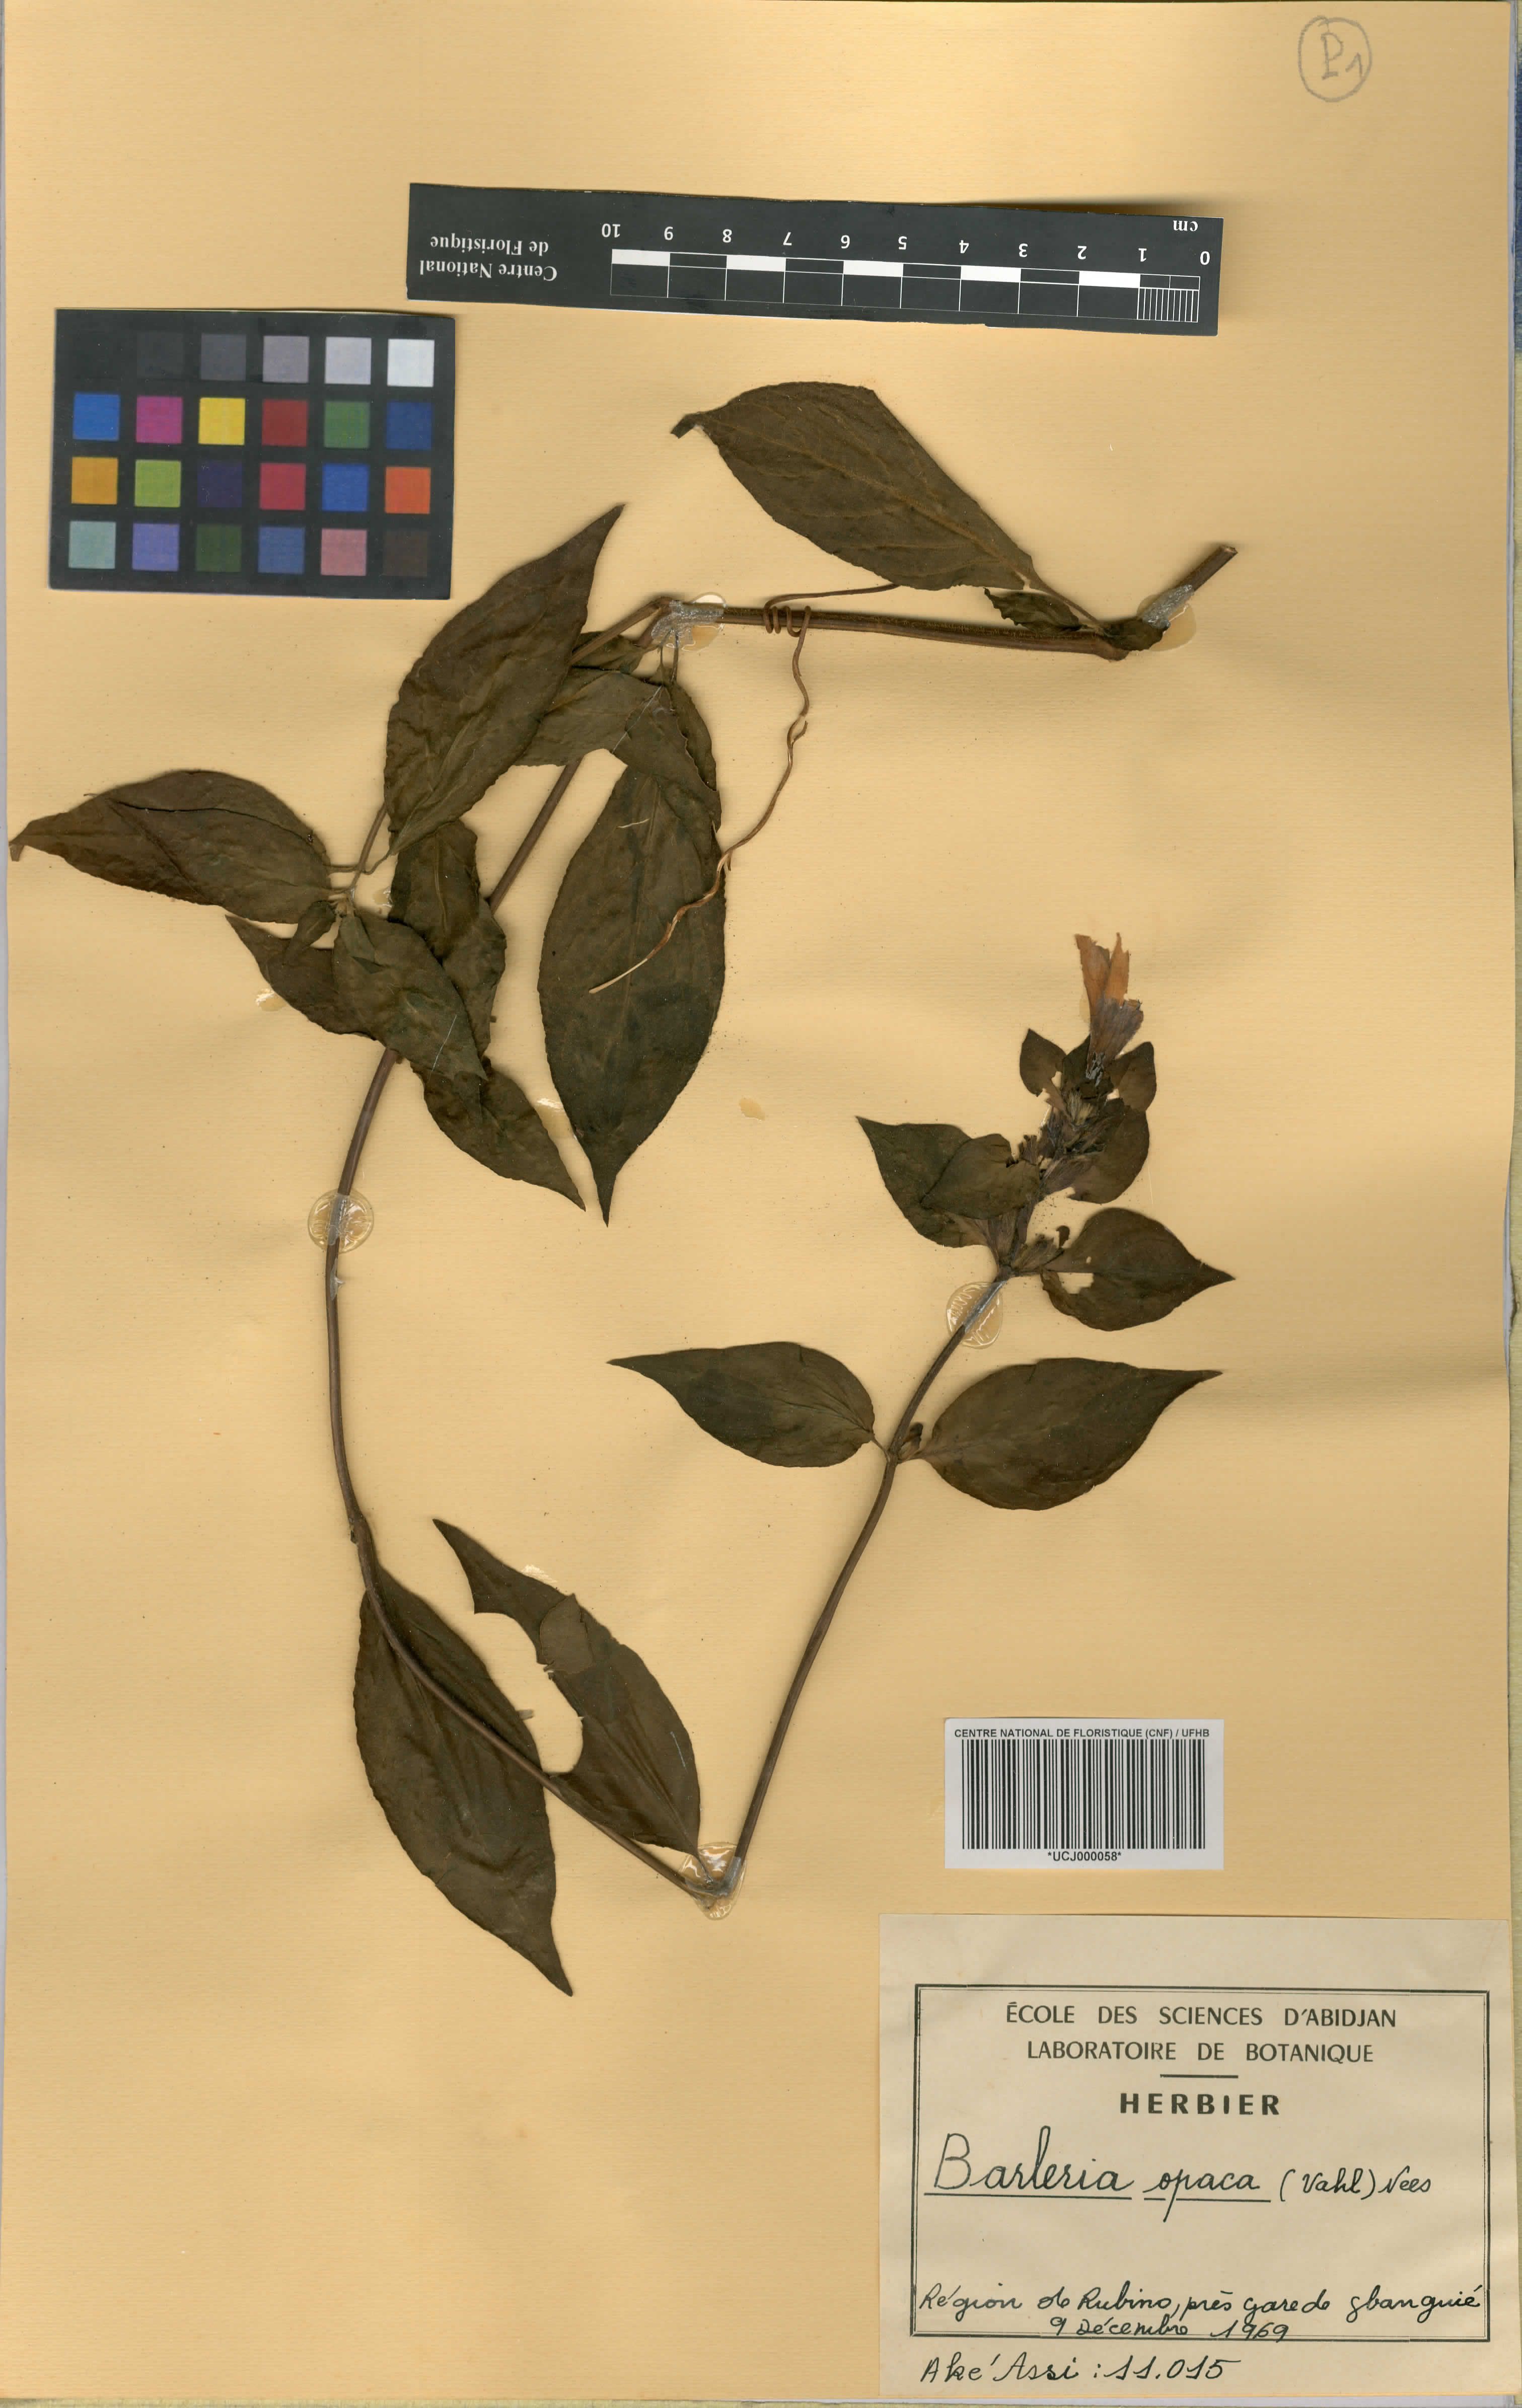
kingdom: Plantae
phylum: Tracheophyta
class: Magnoliopsida
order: Lamiales
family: Acanthaceae
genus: Barleria
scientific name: Barleria opaca
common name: Kwahu
